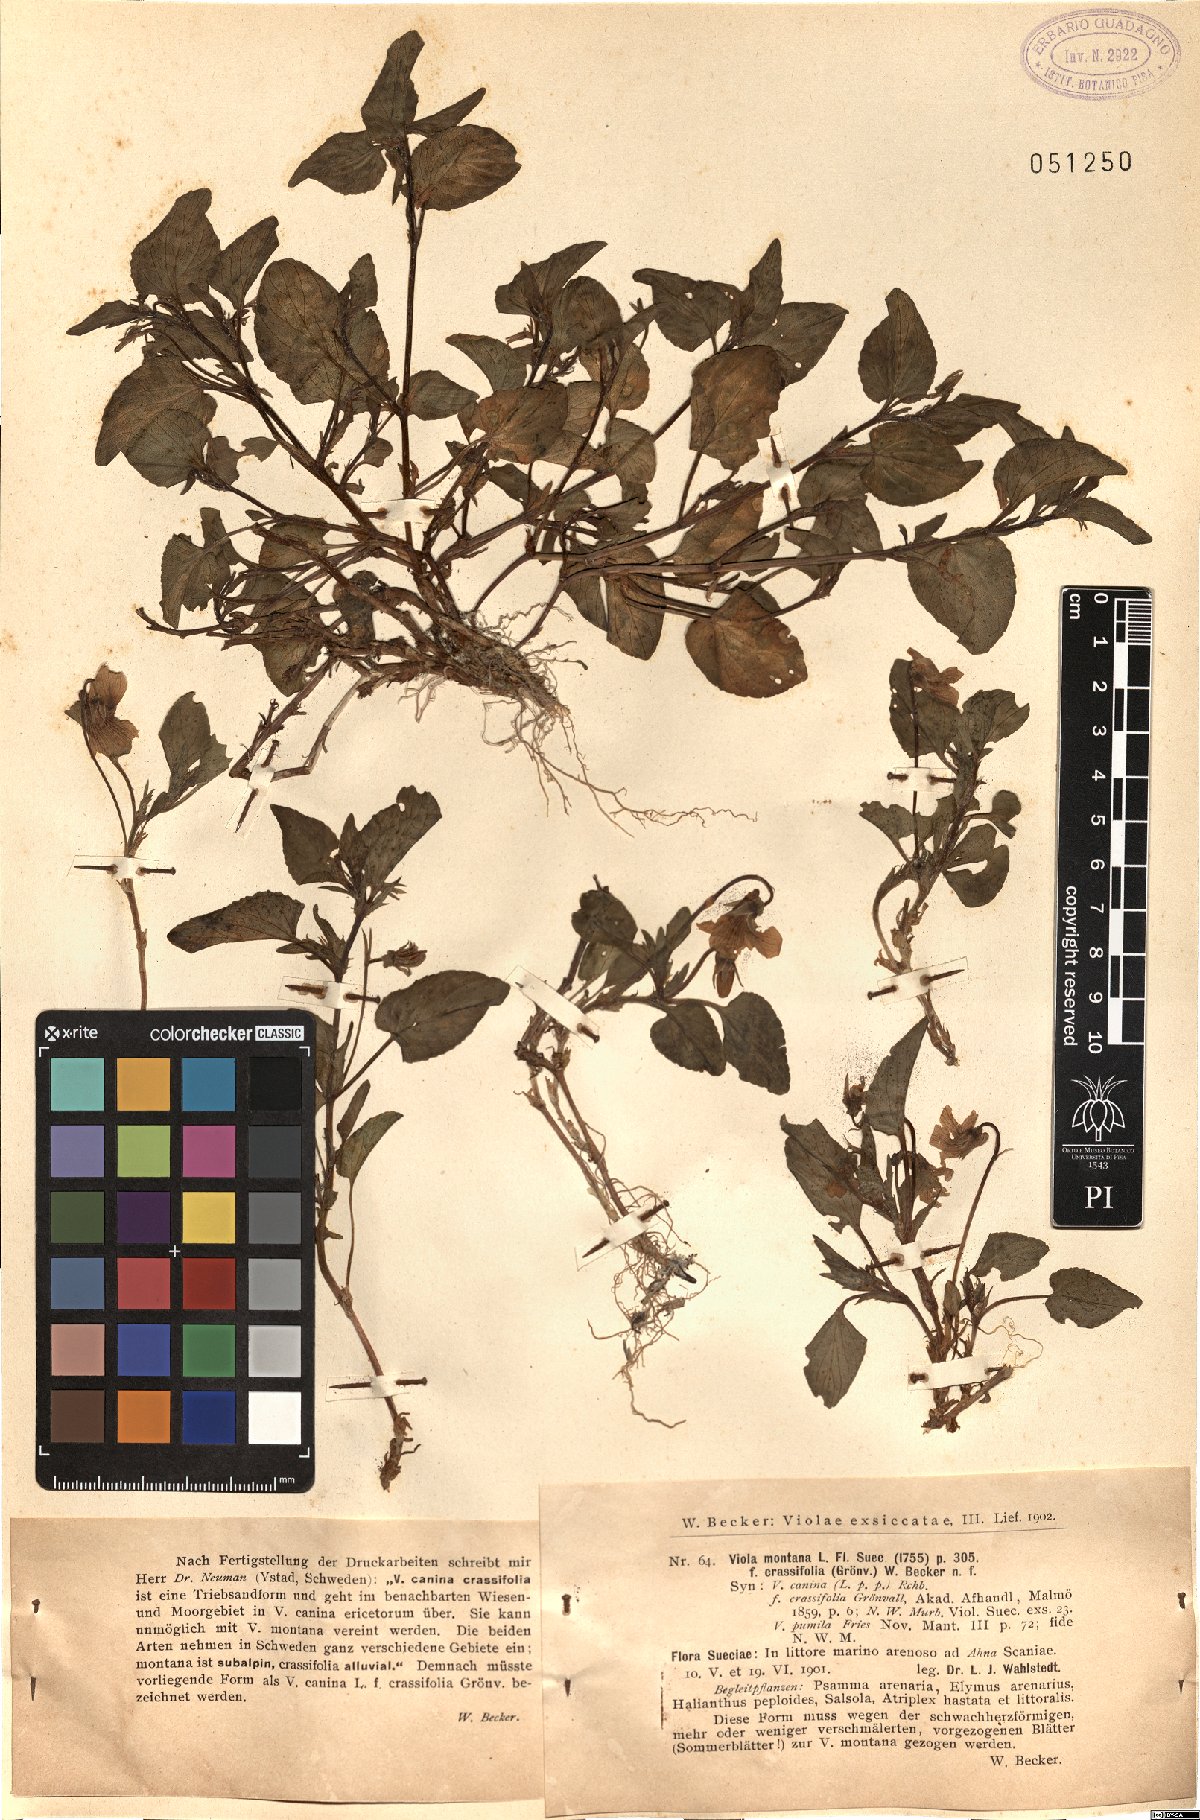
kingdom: Plantae
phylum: Tracheophyta
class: Magnoliopsida
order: Malpighiales
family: Violaceae
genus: Viola
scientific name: Viola
